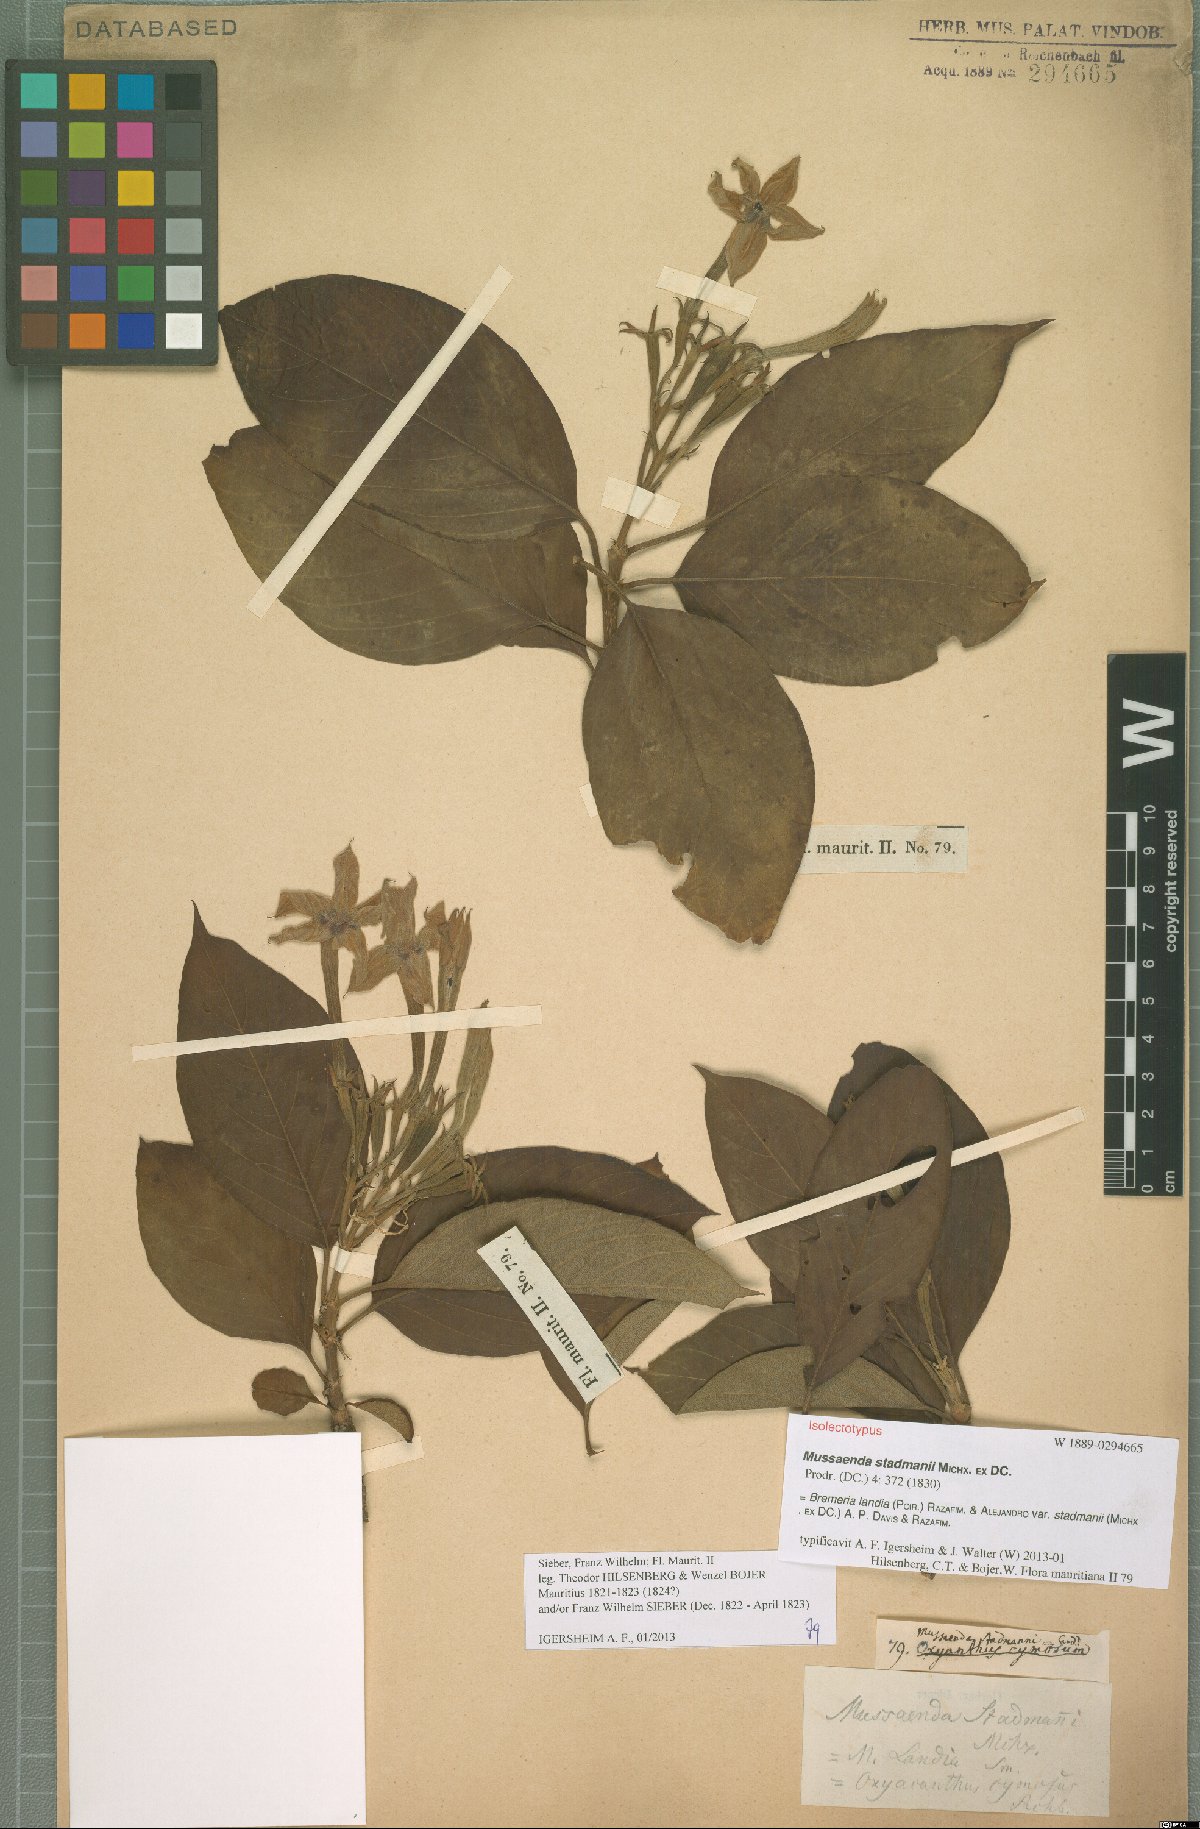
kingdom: Plantae
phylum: Tracheophyta
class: Magnoliopsida
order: Gentianales
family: Rubiaceae
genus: Bremeria
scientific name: Bremeria landia
